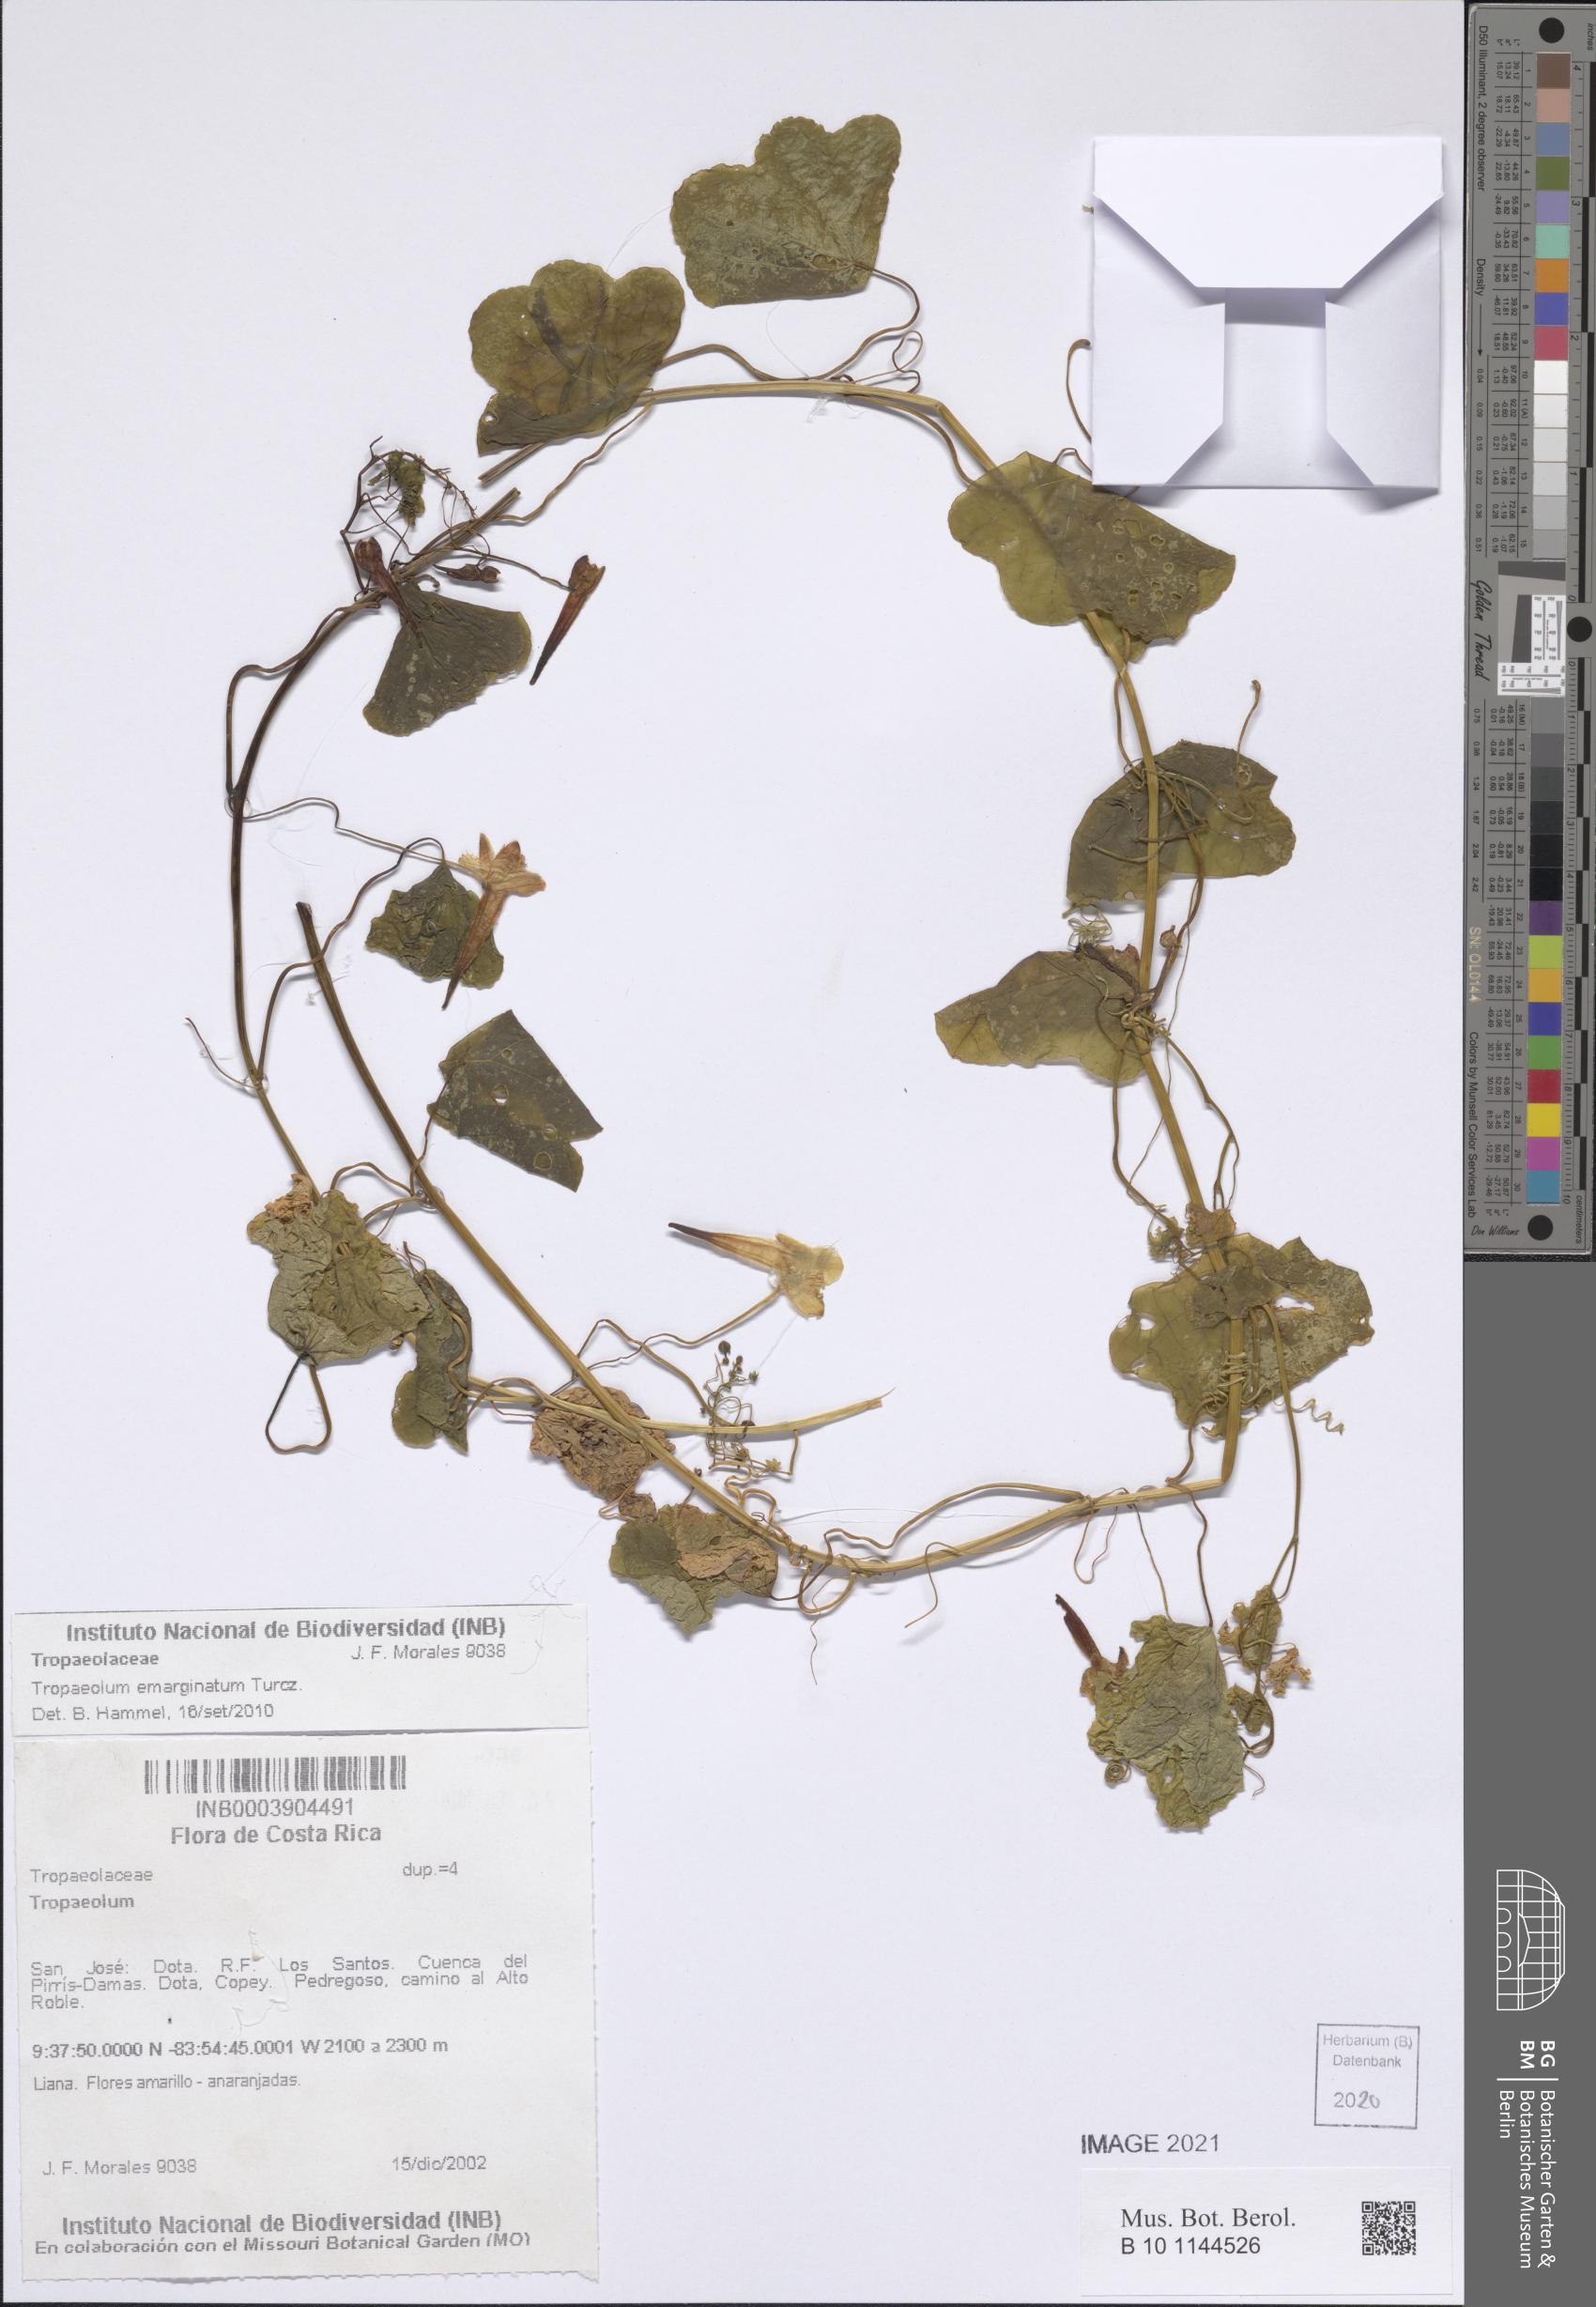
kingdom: Plantae
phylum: Tracheophyta
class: Magnoliopsida
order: Brassicales
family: Tropaeolaceae
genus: Tropaeolum
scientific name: Tropaeolum emarginatum
